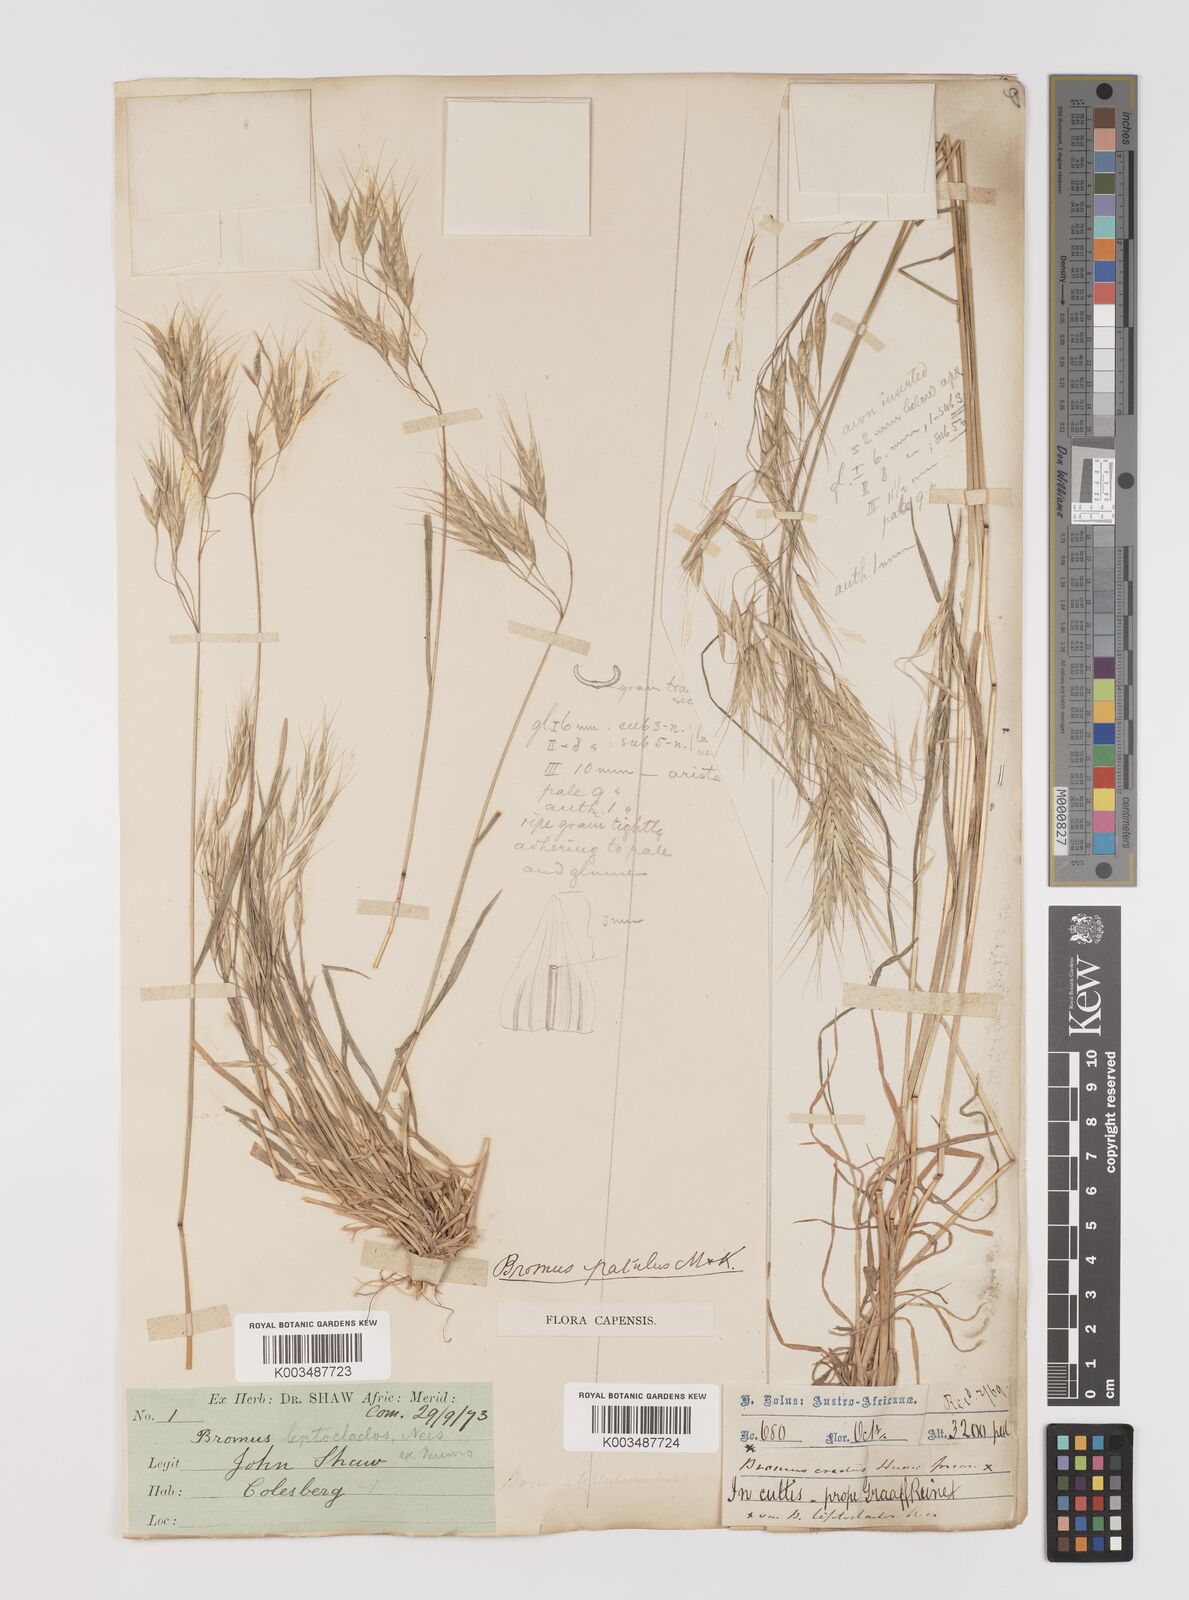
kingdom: Plantae
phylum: Tracheophyta
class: Liliopsida
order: Poales
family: Poaceae
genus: Bromus
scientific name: Bromus pectinatus
